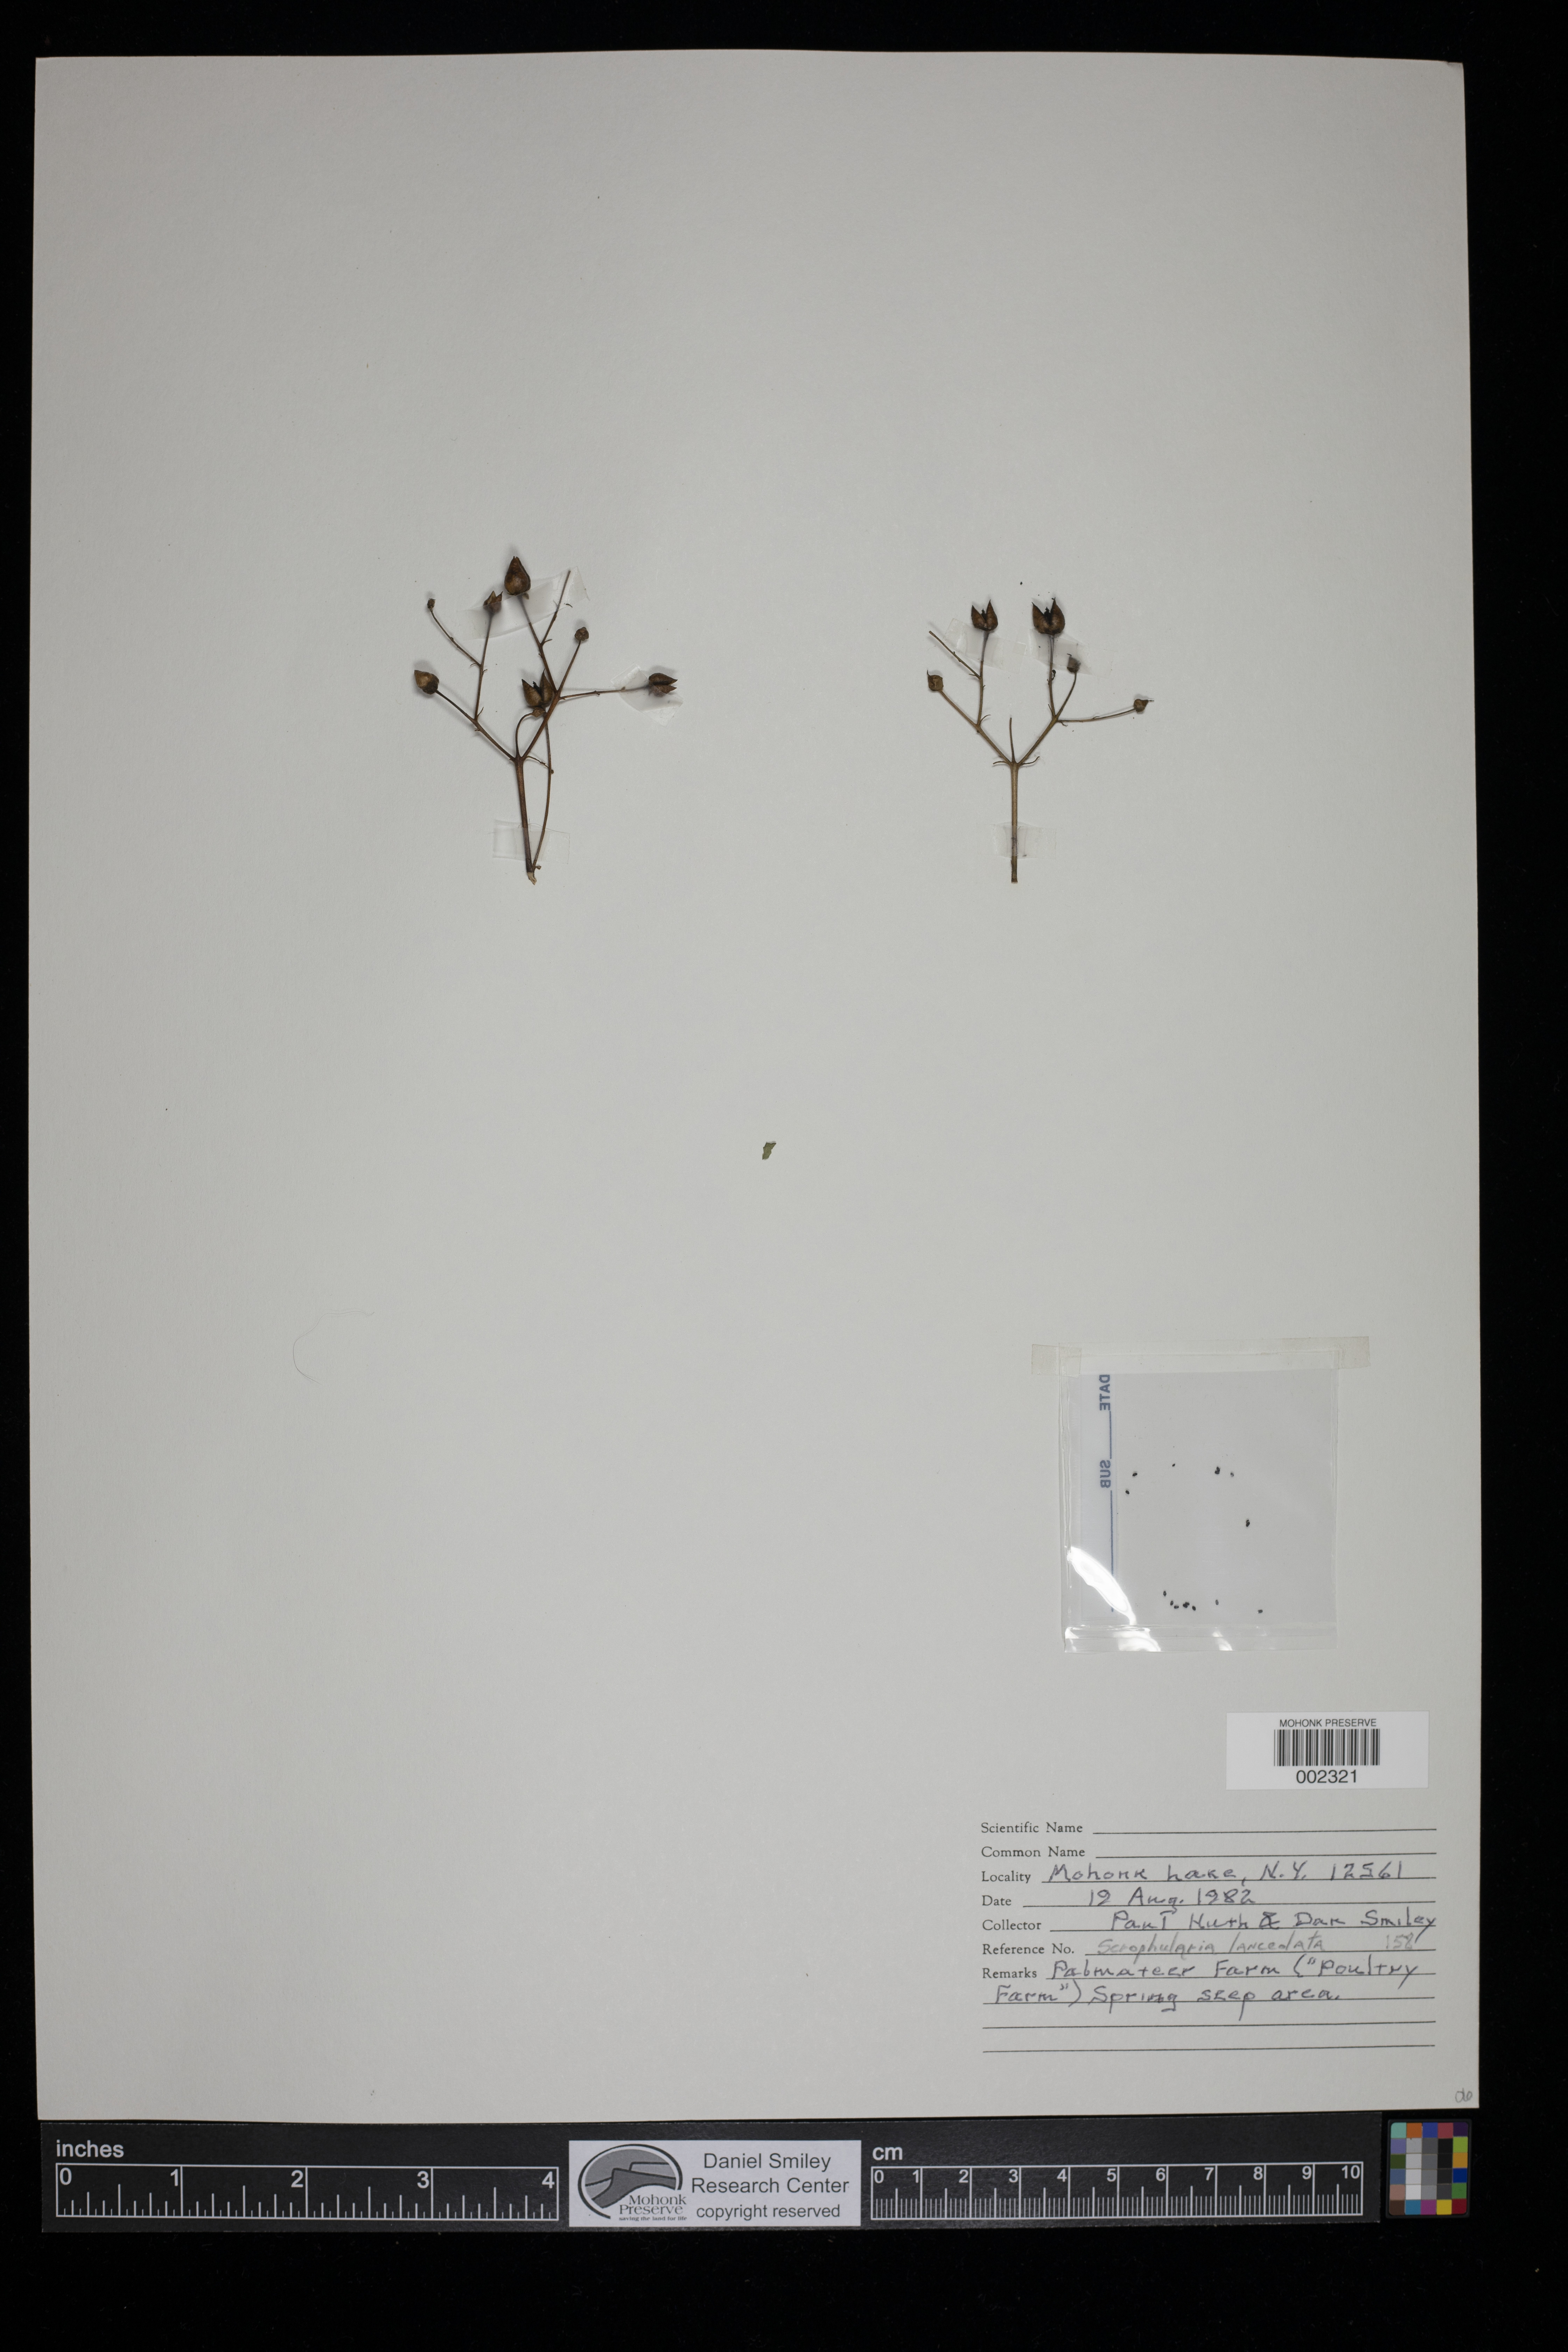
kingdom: Plantae
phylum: Tracheophyta
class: Magnoliopsida
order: Lamiales
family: Scrophulariaceae
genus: Scrophularia
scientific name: Scrophularia lanceolata
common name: American figwort
